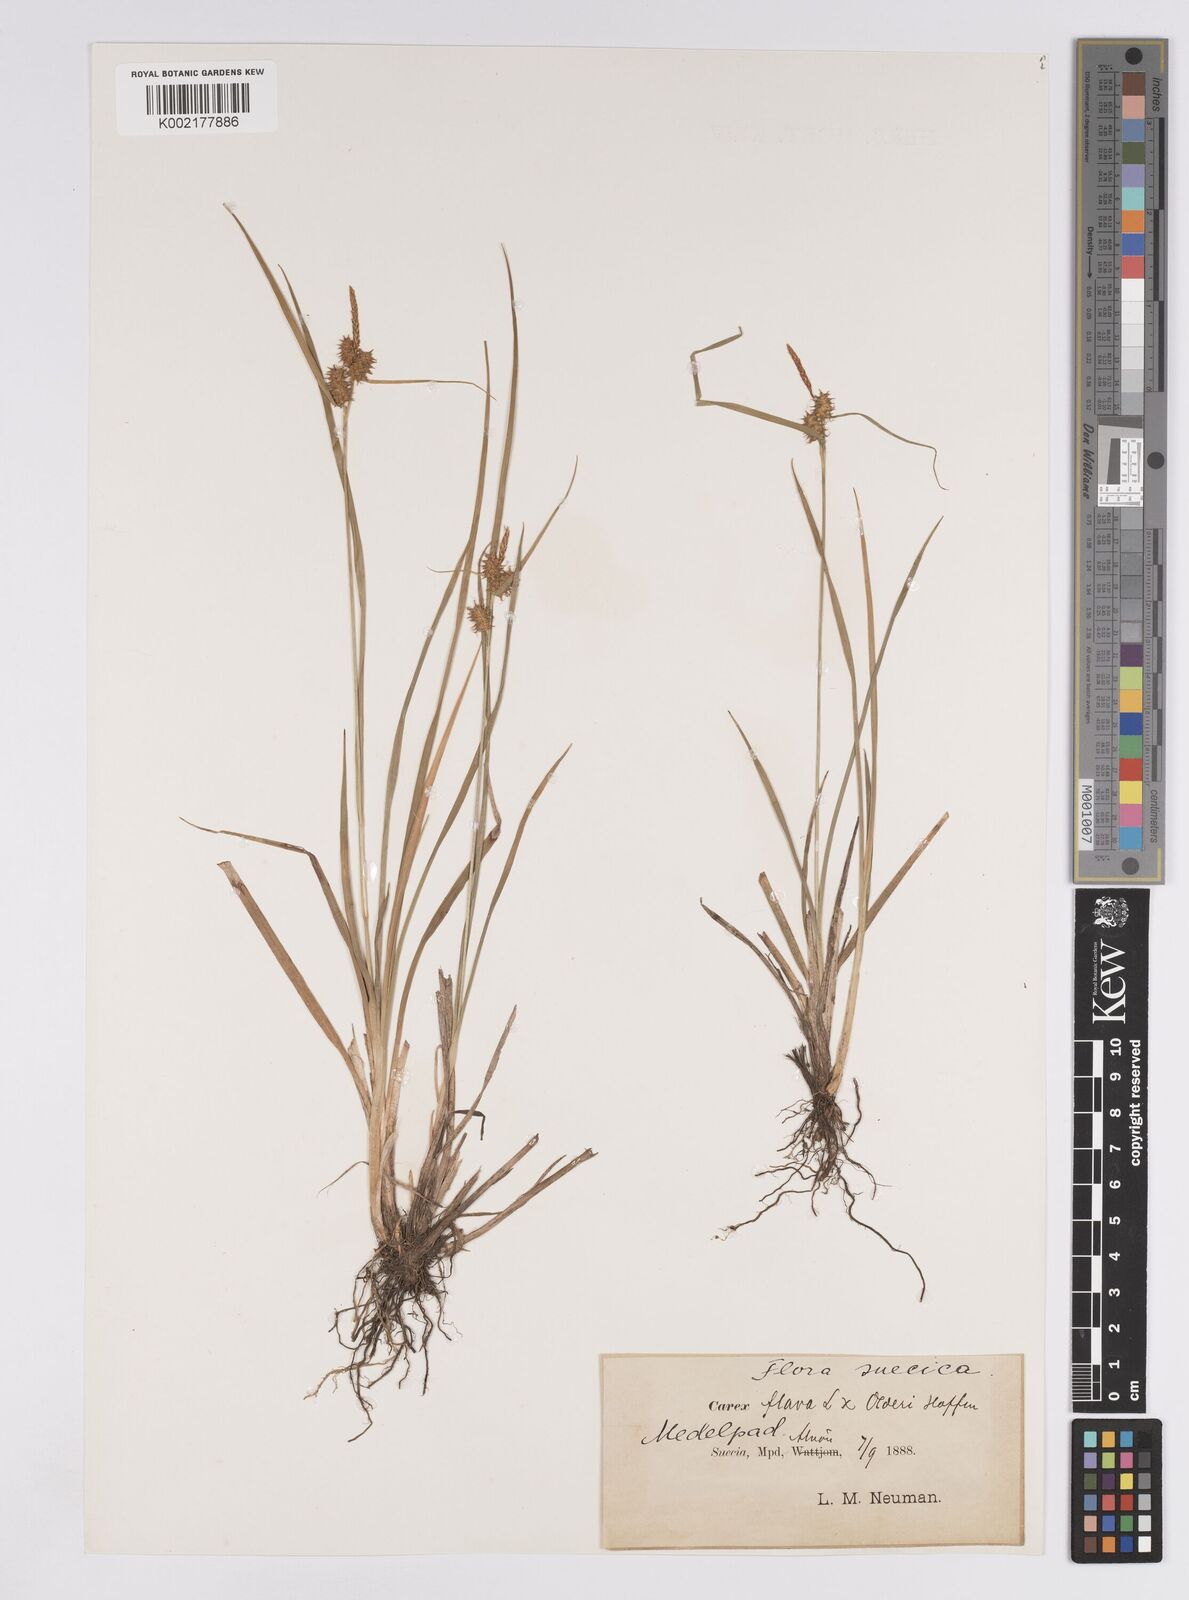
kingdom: Plantae
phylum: Tracheophyta
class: Liliopsida
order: Poales
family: Cyperaceae
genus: Carex
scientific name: Carex flava
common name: Large yellow-sedge
